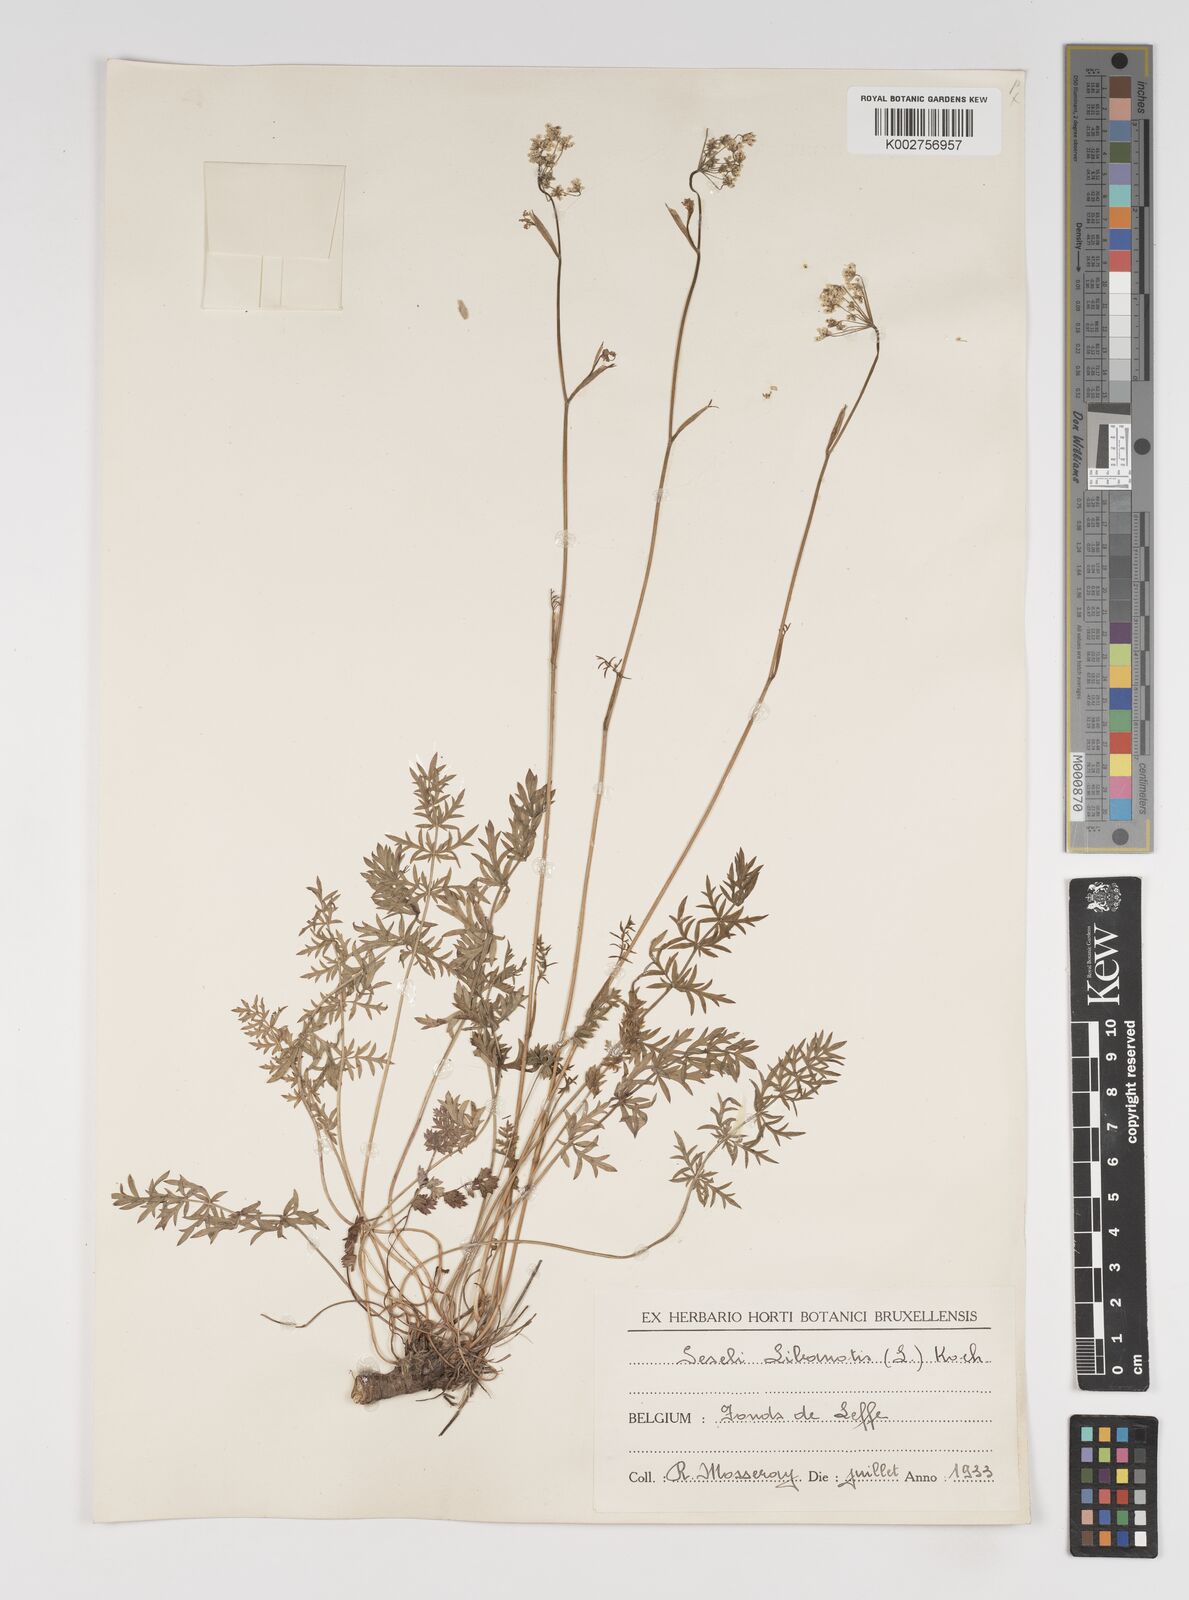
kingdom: Plantae
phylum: Tracheophyta
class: Magnoliopsida
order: Apiales
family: Apiaceae
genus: Seseli
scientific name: Seseli libanotis
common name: Mooncarrot
